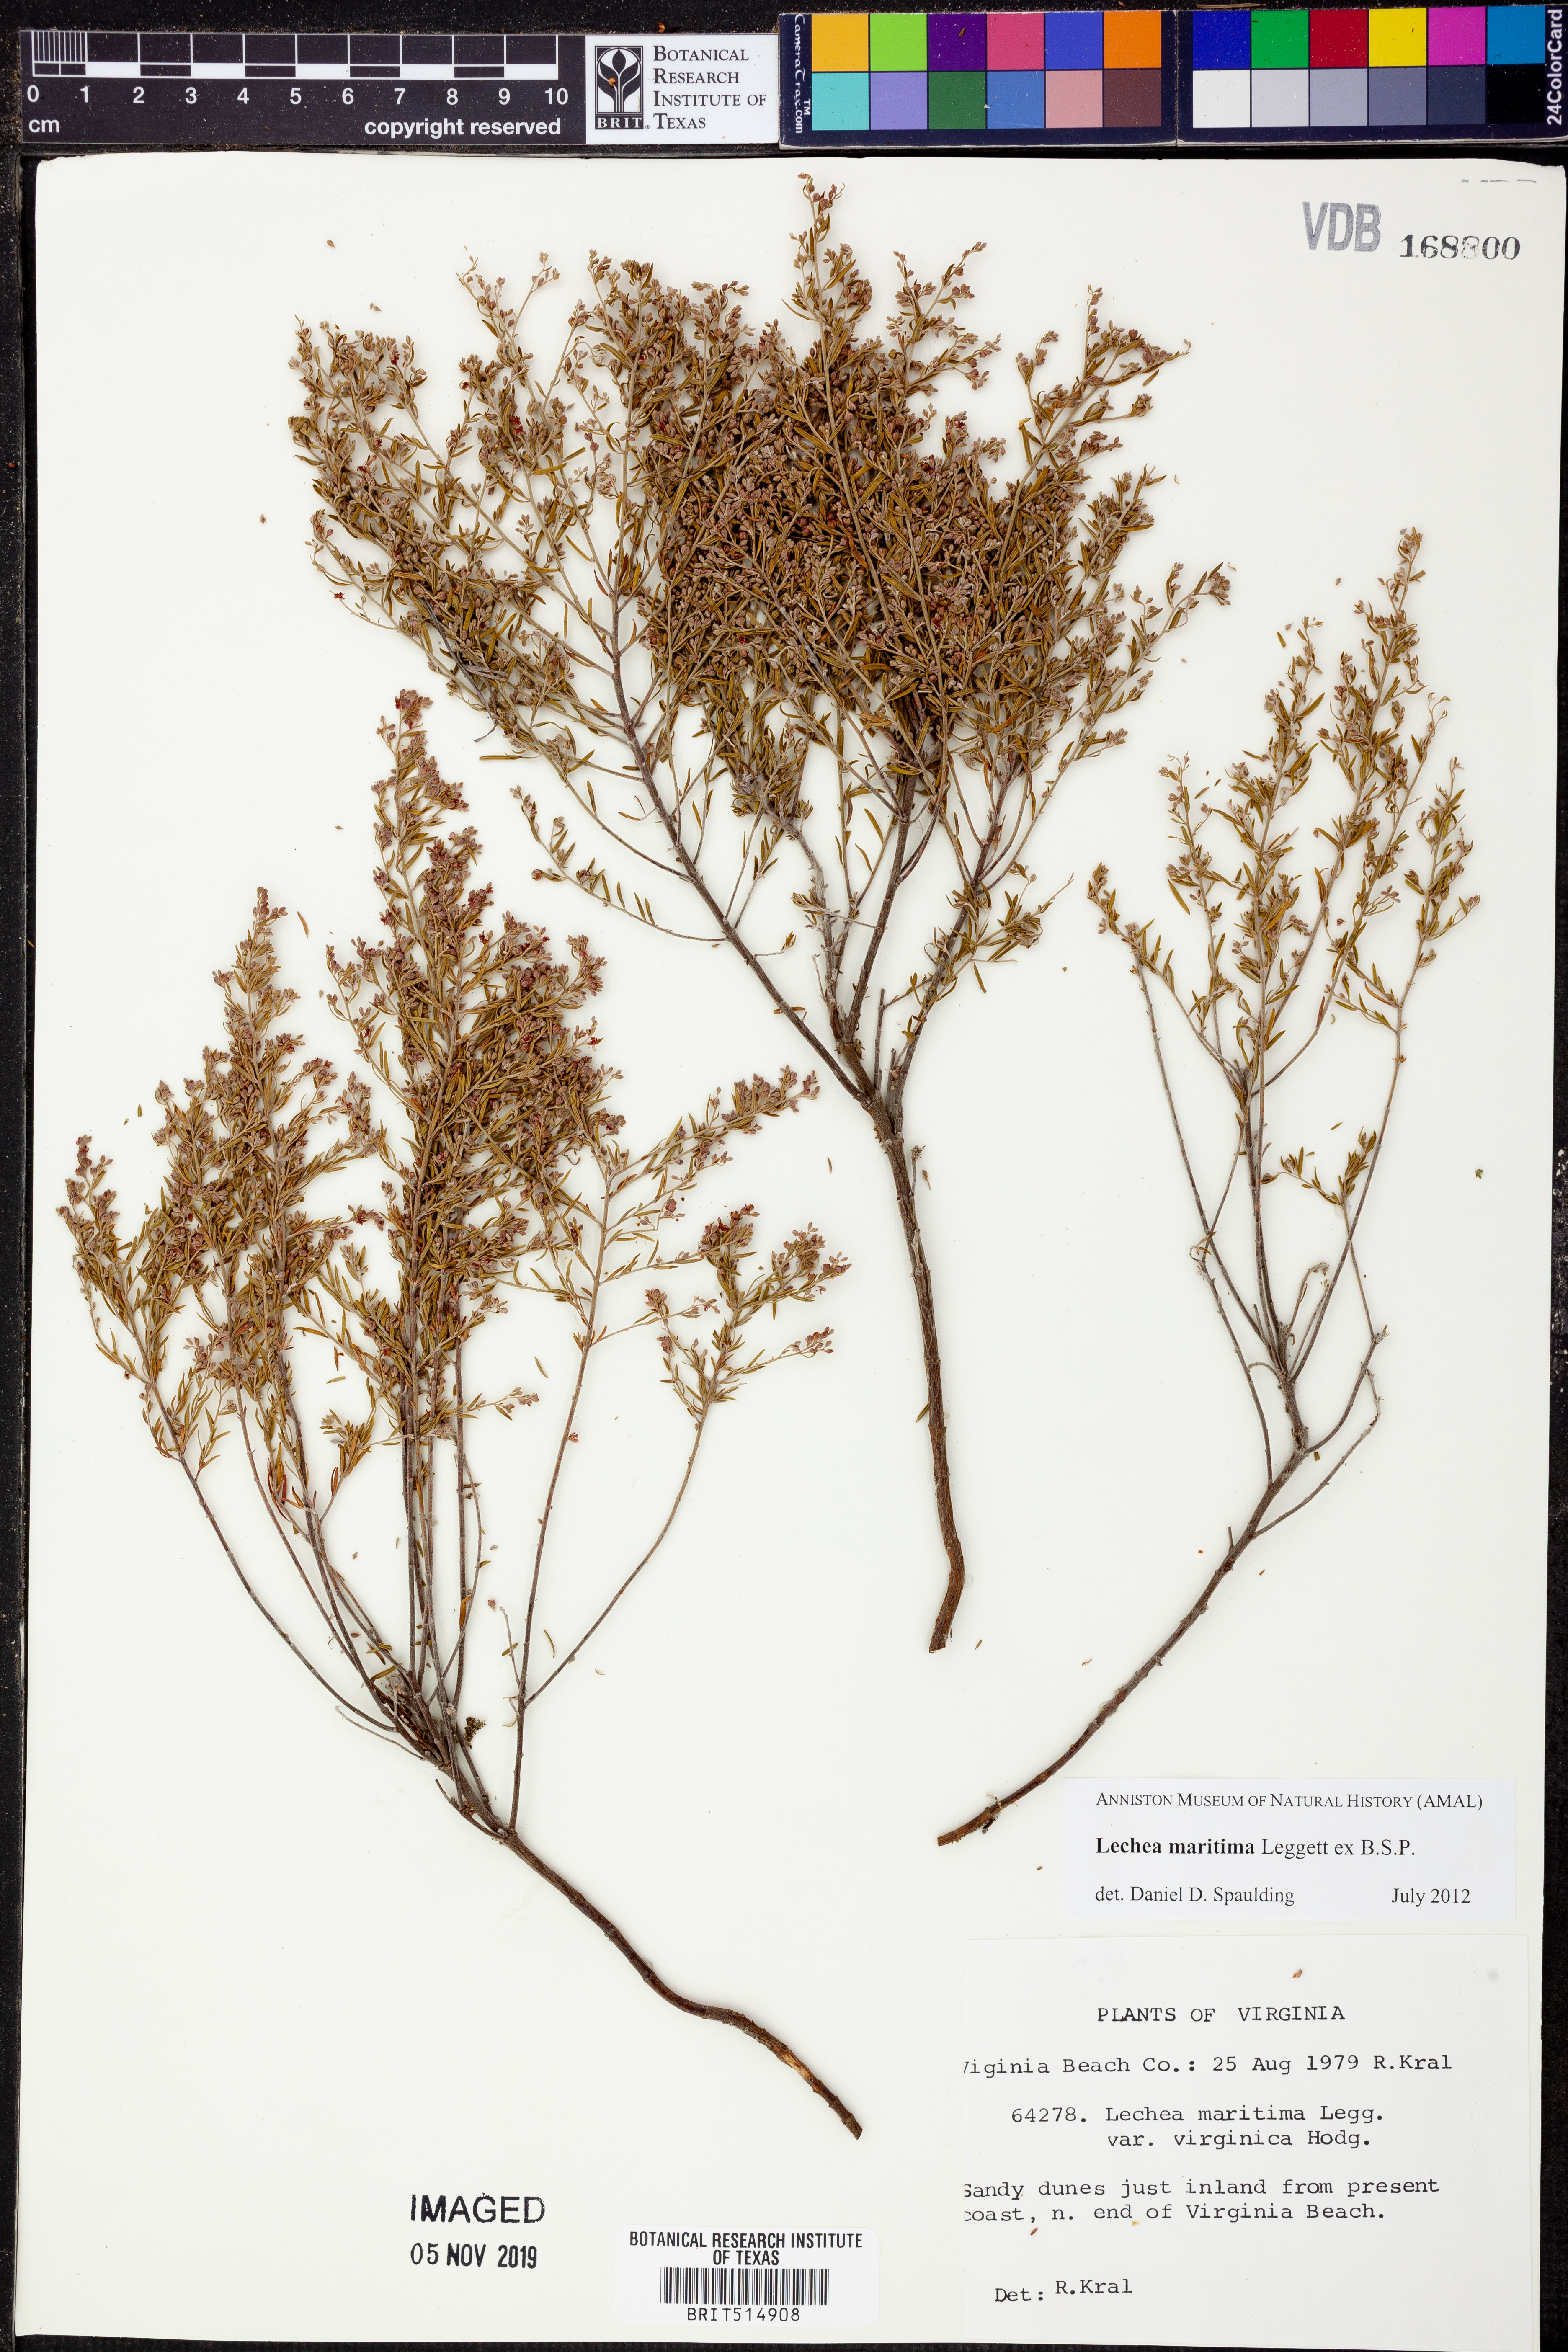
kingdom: Plantae
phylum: Tracheophyta
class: Magnoliopsida
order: Malvales
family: Cistaceae
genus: Lechea
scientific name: Lechea maritima
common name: Beach pinweed
